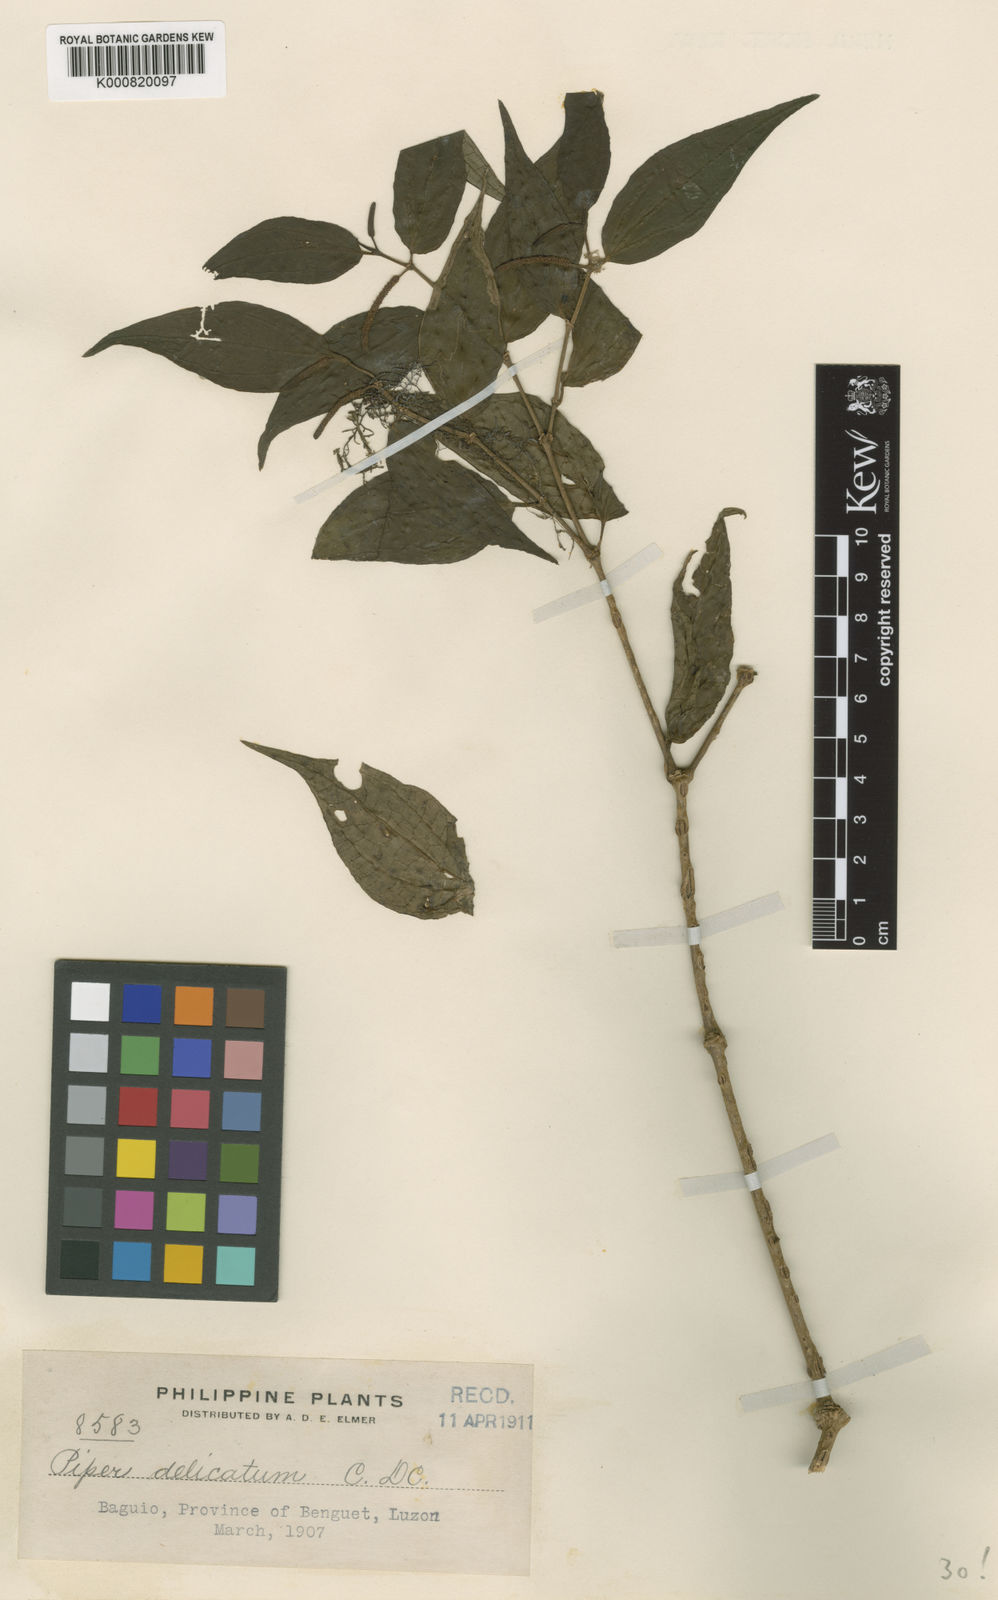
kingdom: Plantae
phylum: Tracheophyta
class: Magnoliopsida
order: Piperales
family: Piperaceae
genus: Piper
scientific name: Piper delicatum
